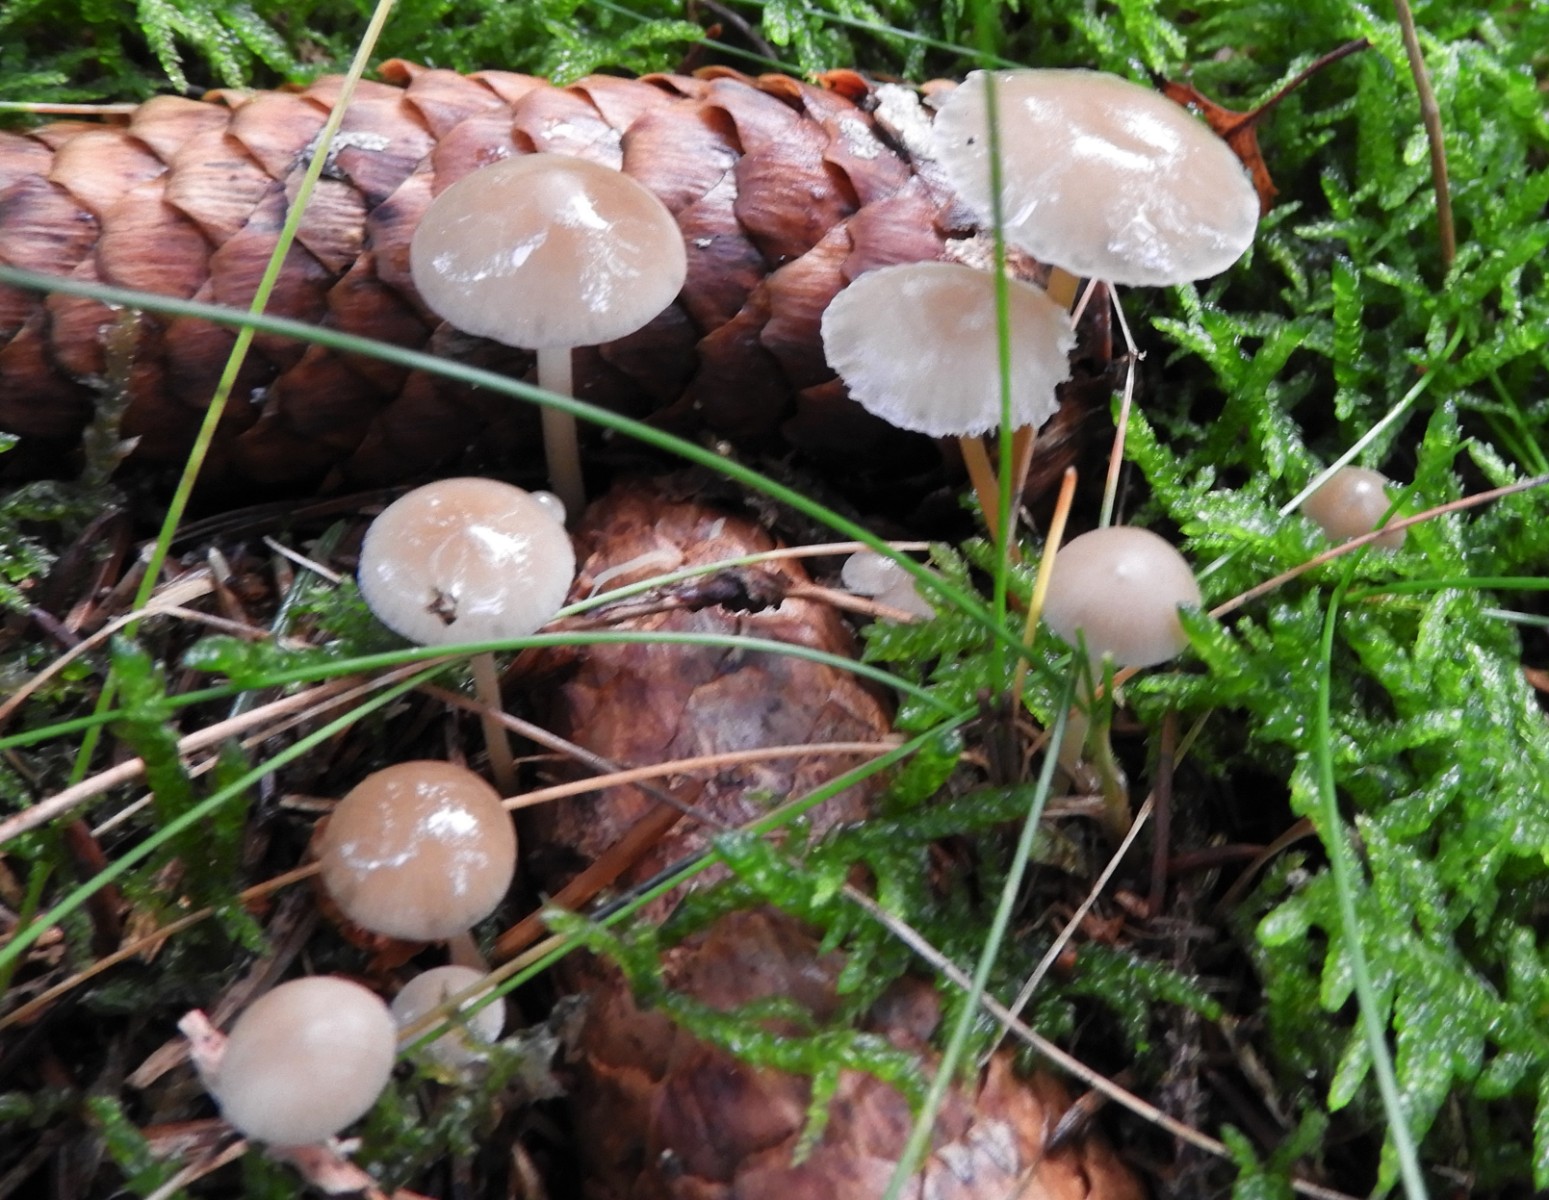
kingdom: Fungi
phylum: Basidiomycota
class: Agaricomycetes
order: Agaricales
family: Physalacriaceae
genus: Strobilurus
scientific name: Strobilurus esculentus
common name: gran-koglehat
